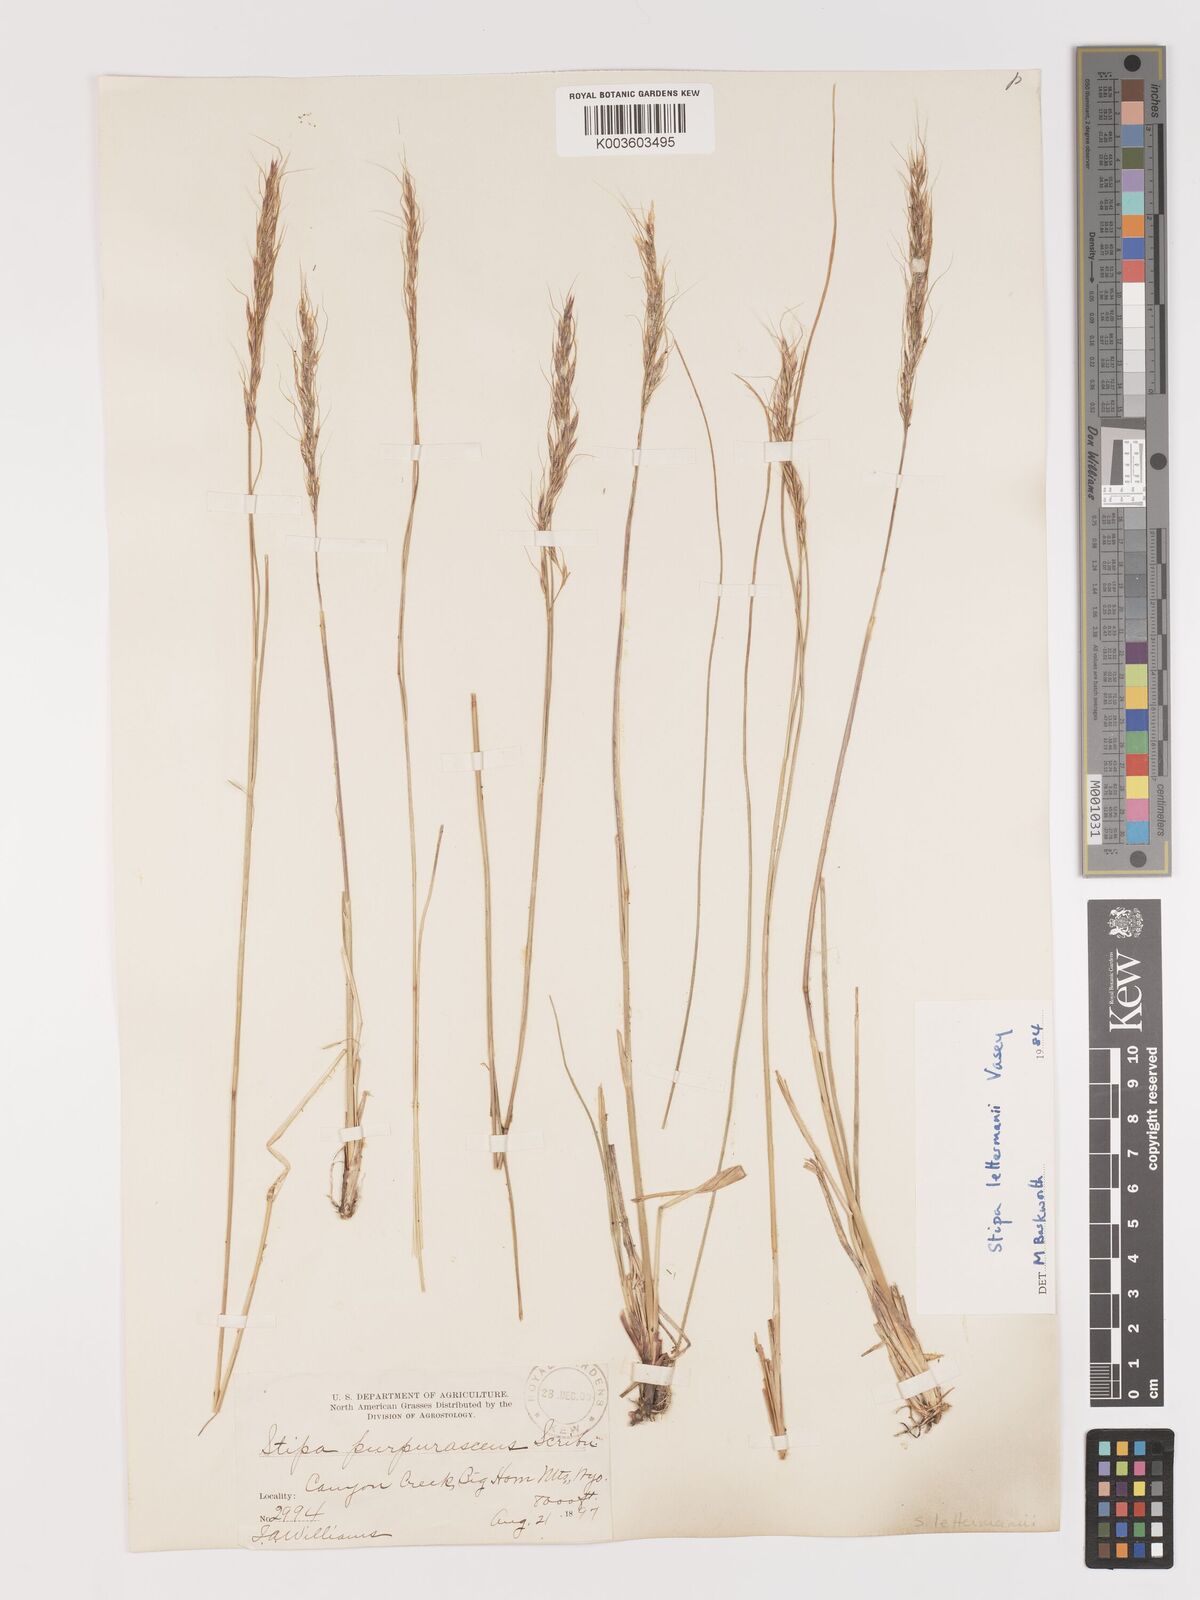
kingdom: Plantae
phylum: Tracheophyta
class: Liliopsida
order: Poales
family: Poaceae
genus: Eriocoma
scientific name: Eriocoma lettermanii
